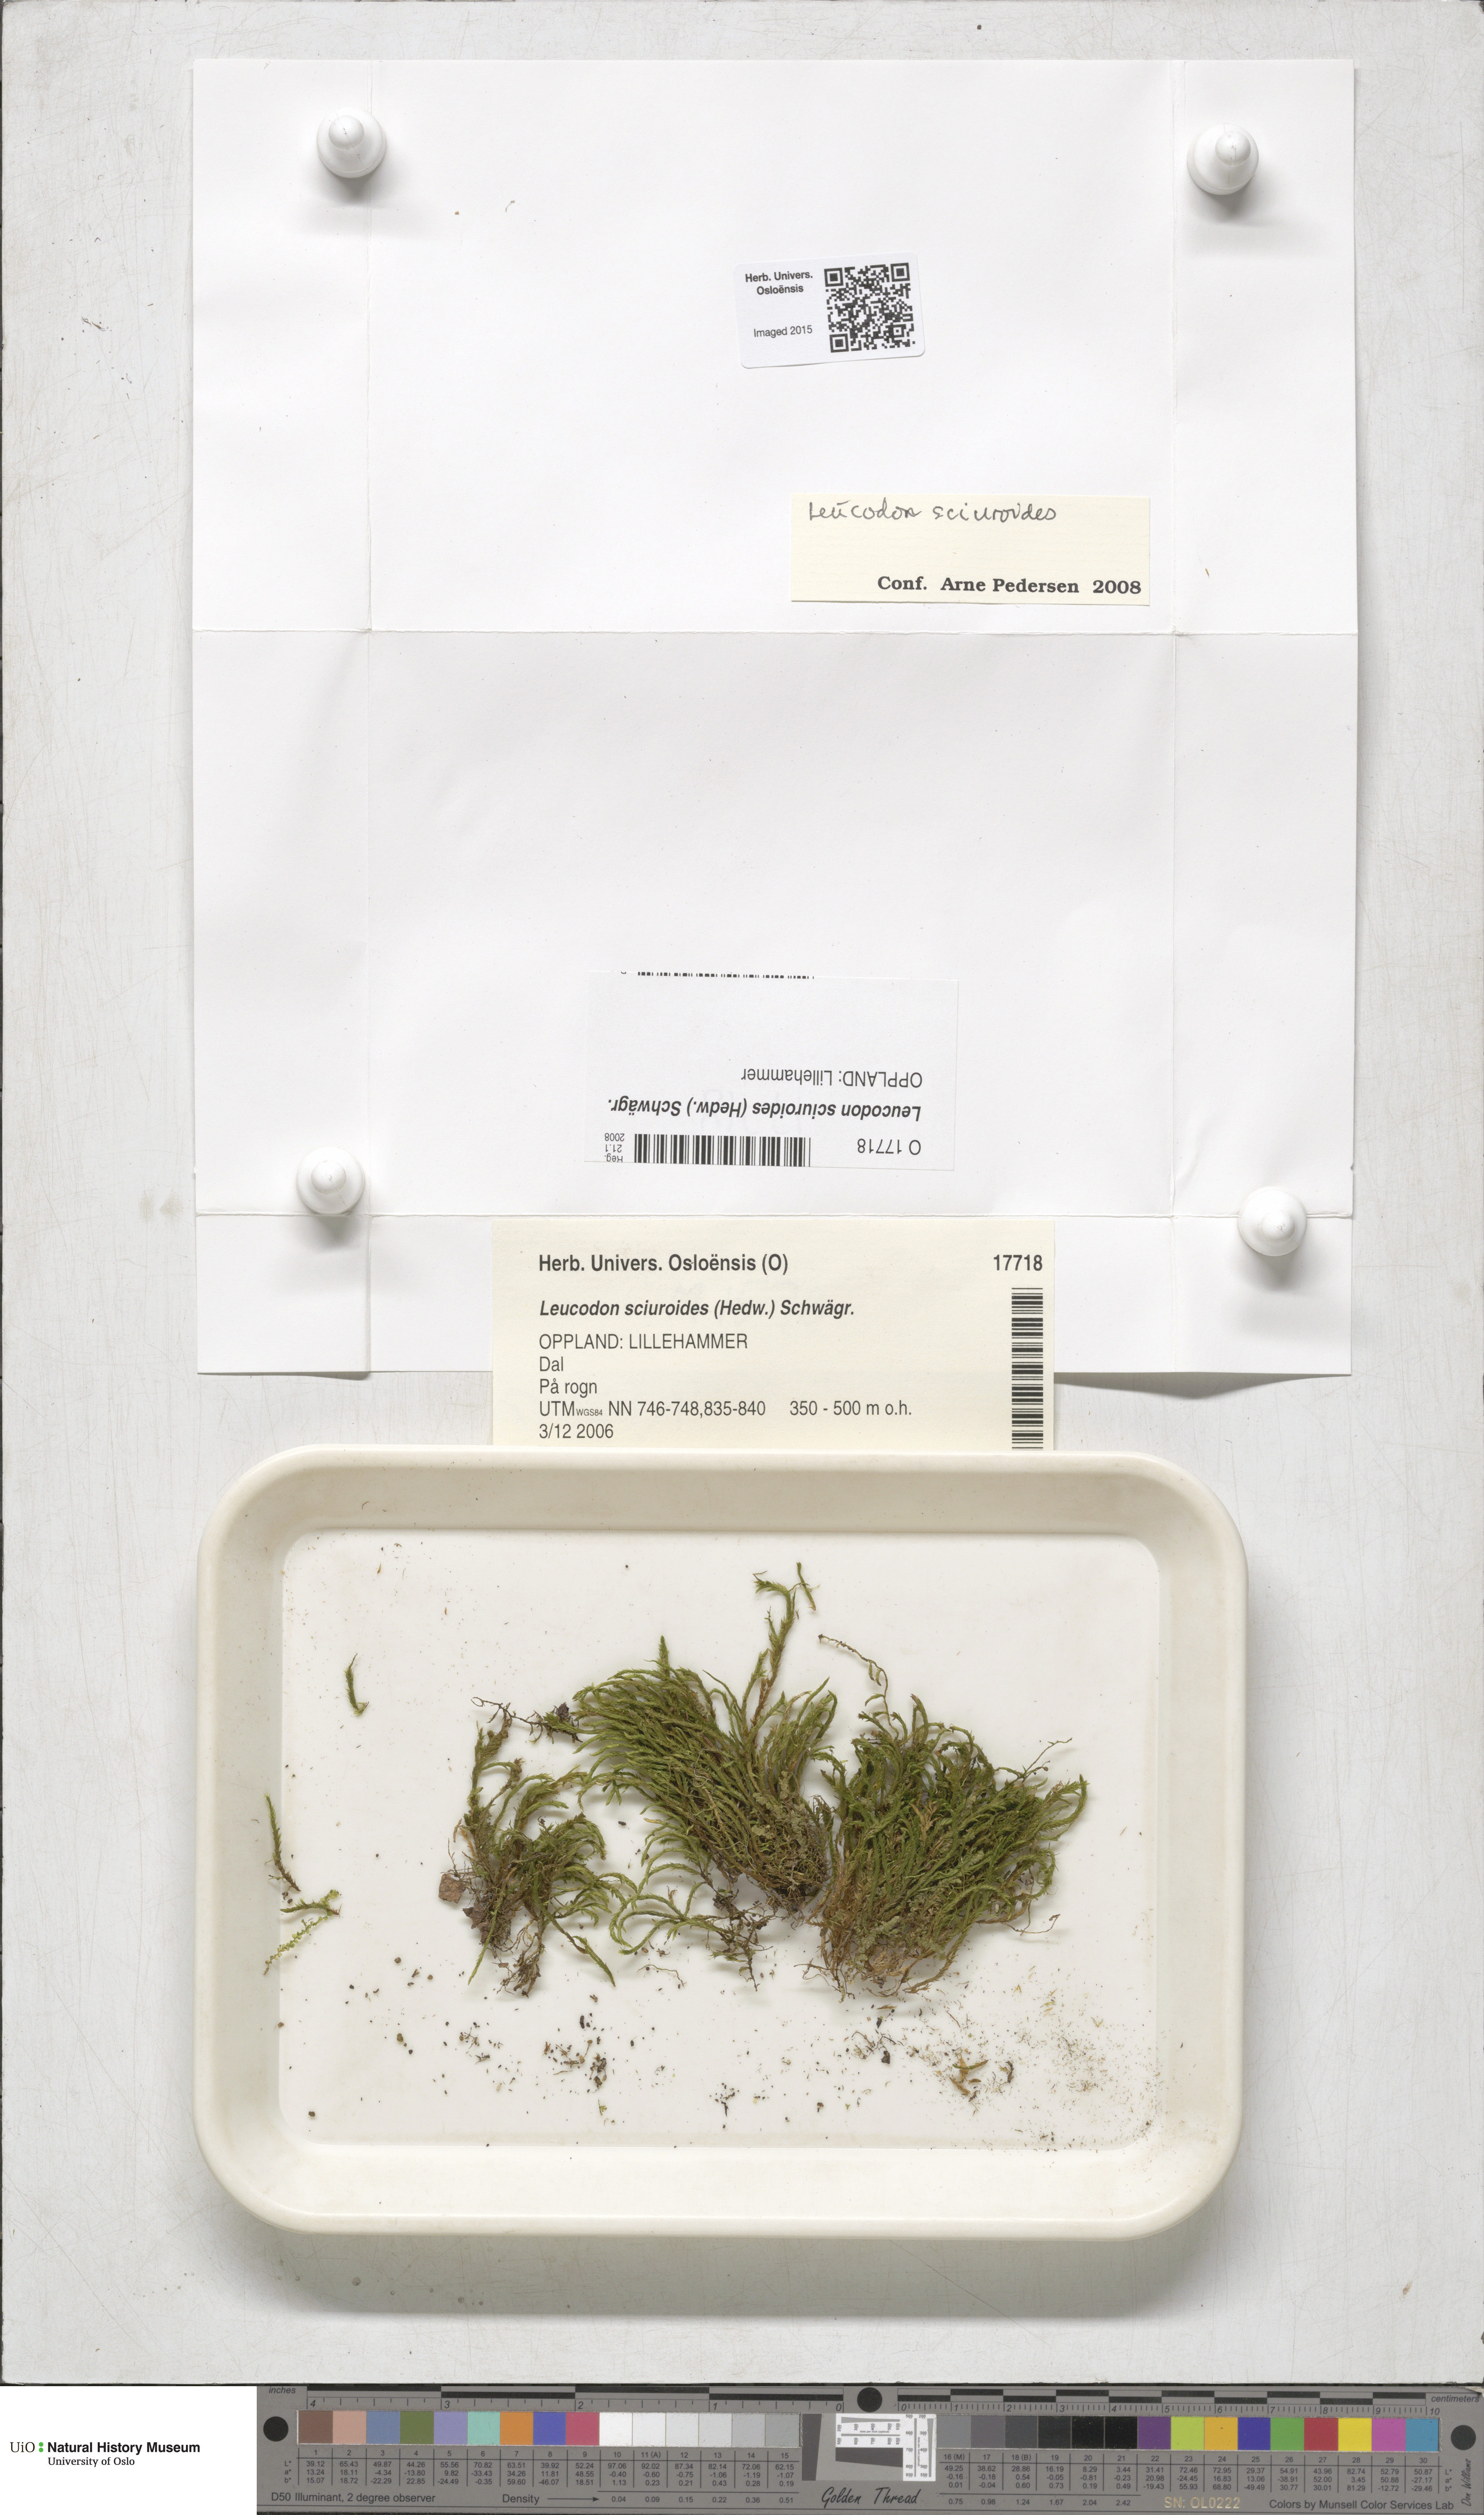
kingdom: Plantae
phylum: Bryophyta
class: Bryopsida
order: Hypnales
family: Leucodontaceae
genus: Leucodon
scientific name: Leucodon sciuroides
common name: Squirrel-tail moss
